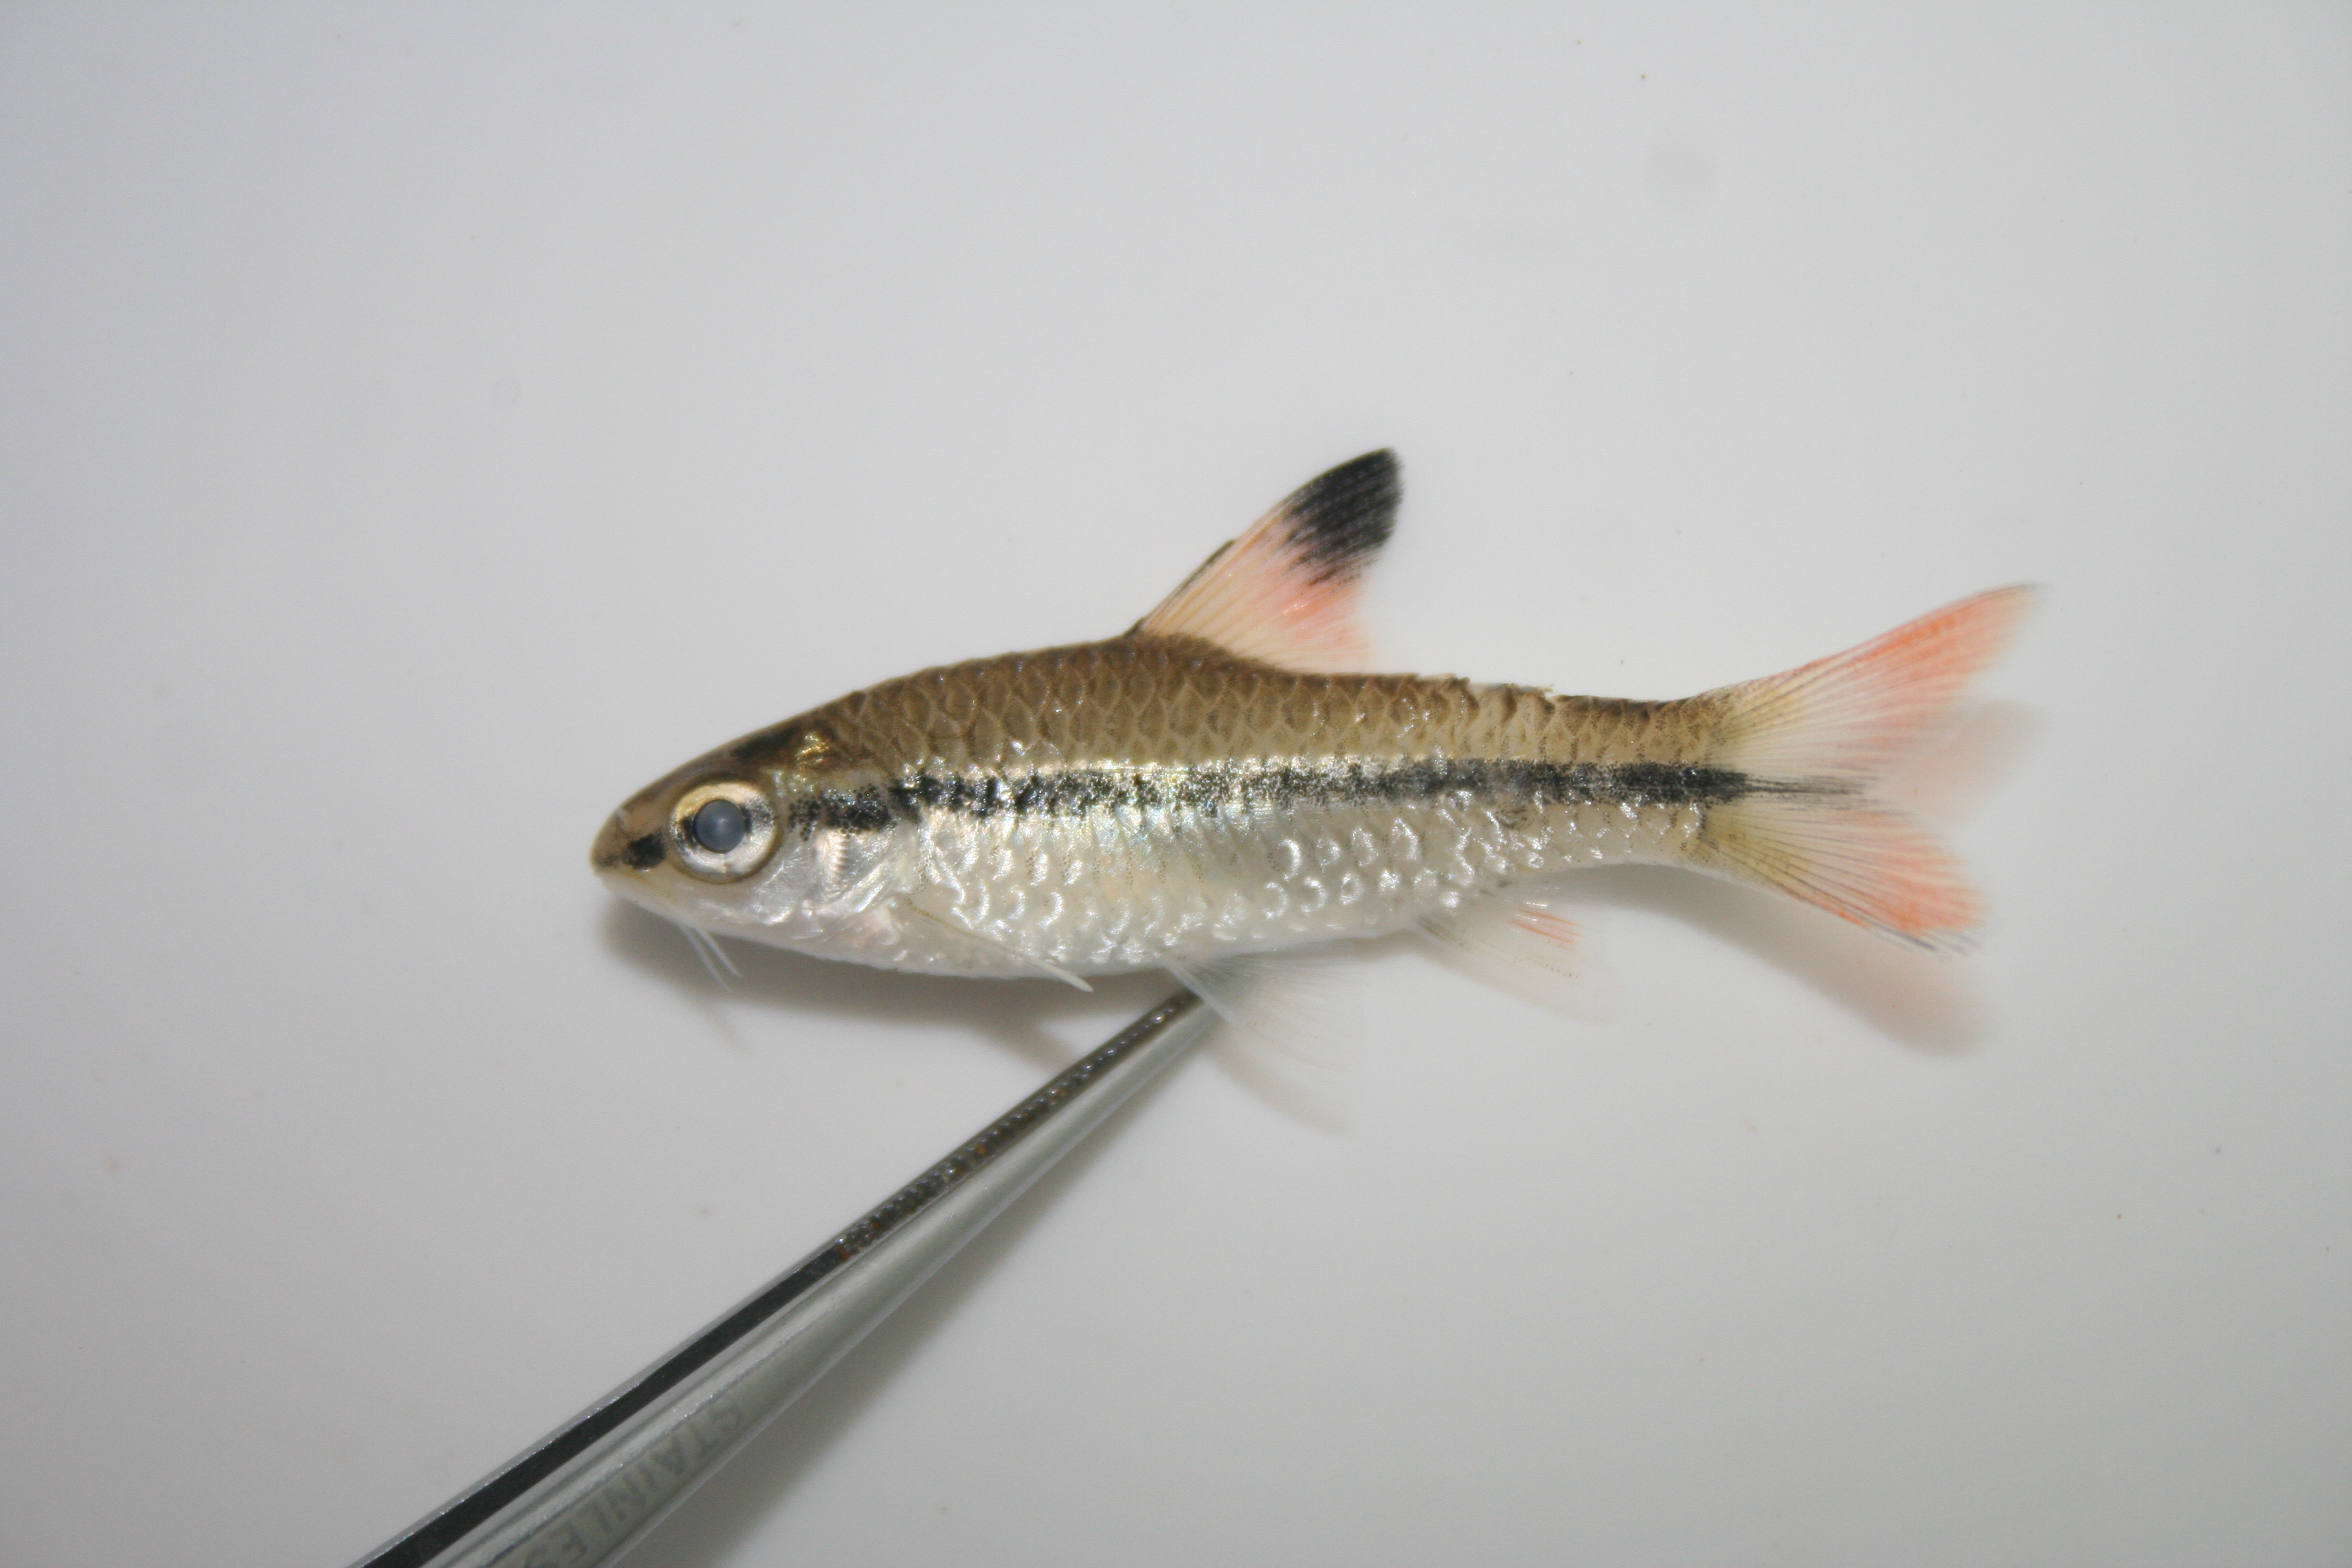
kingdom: Animalia
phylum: Chordata
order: Cypriniformes
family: Cyprinidae
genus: Enteromius
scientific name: Enteromius holotaenia
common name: Spotscale barb
